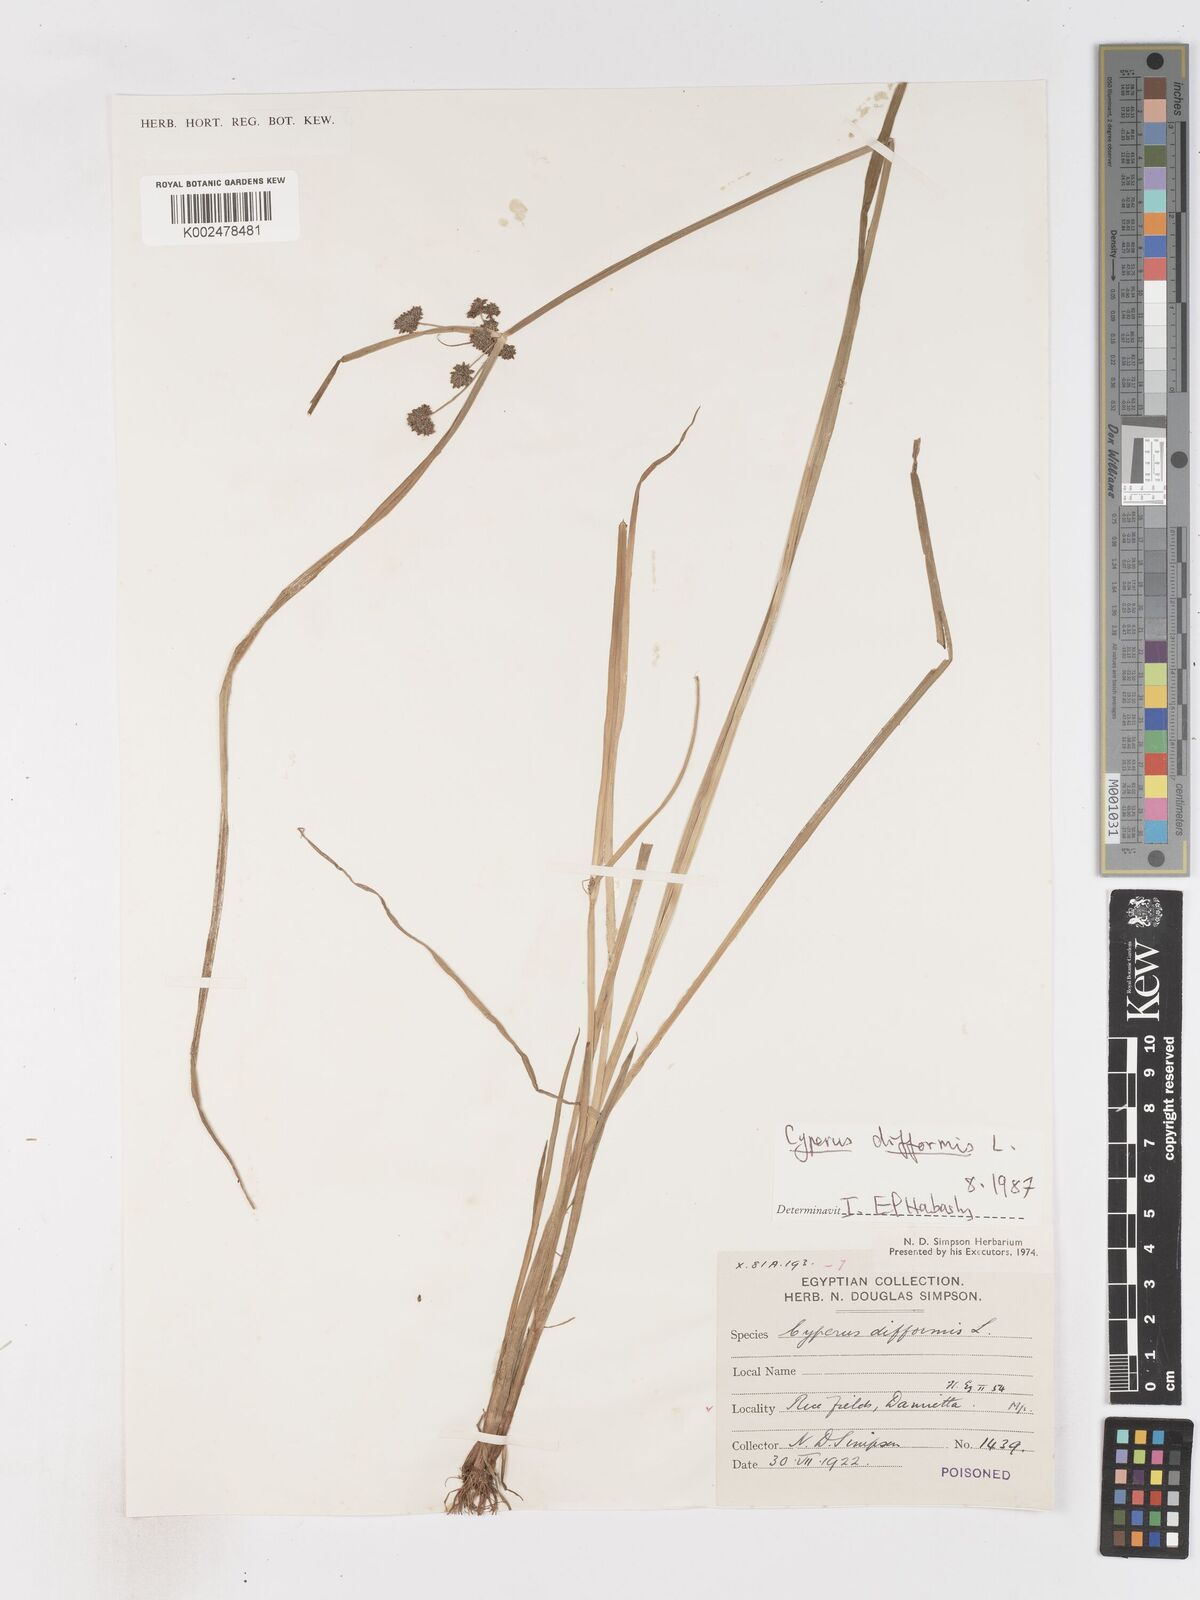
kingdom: Plantae
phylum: Tracheophyta
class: Liliopsida
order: Poales
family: Cyperaceae
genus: Cyperus
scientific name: Cyperus difformis
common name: Variable flatsedge
